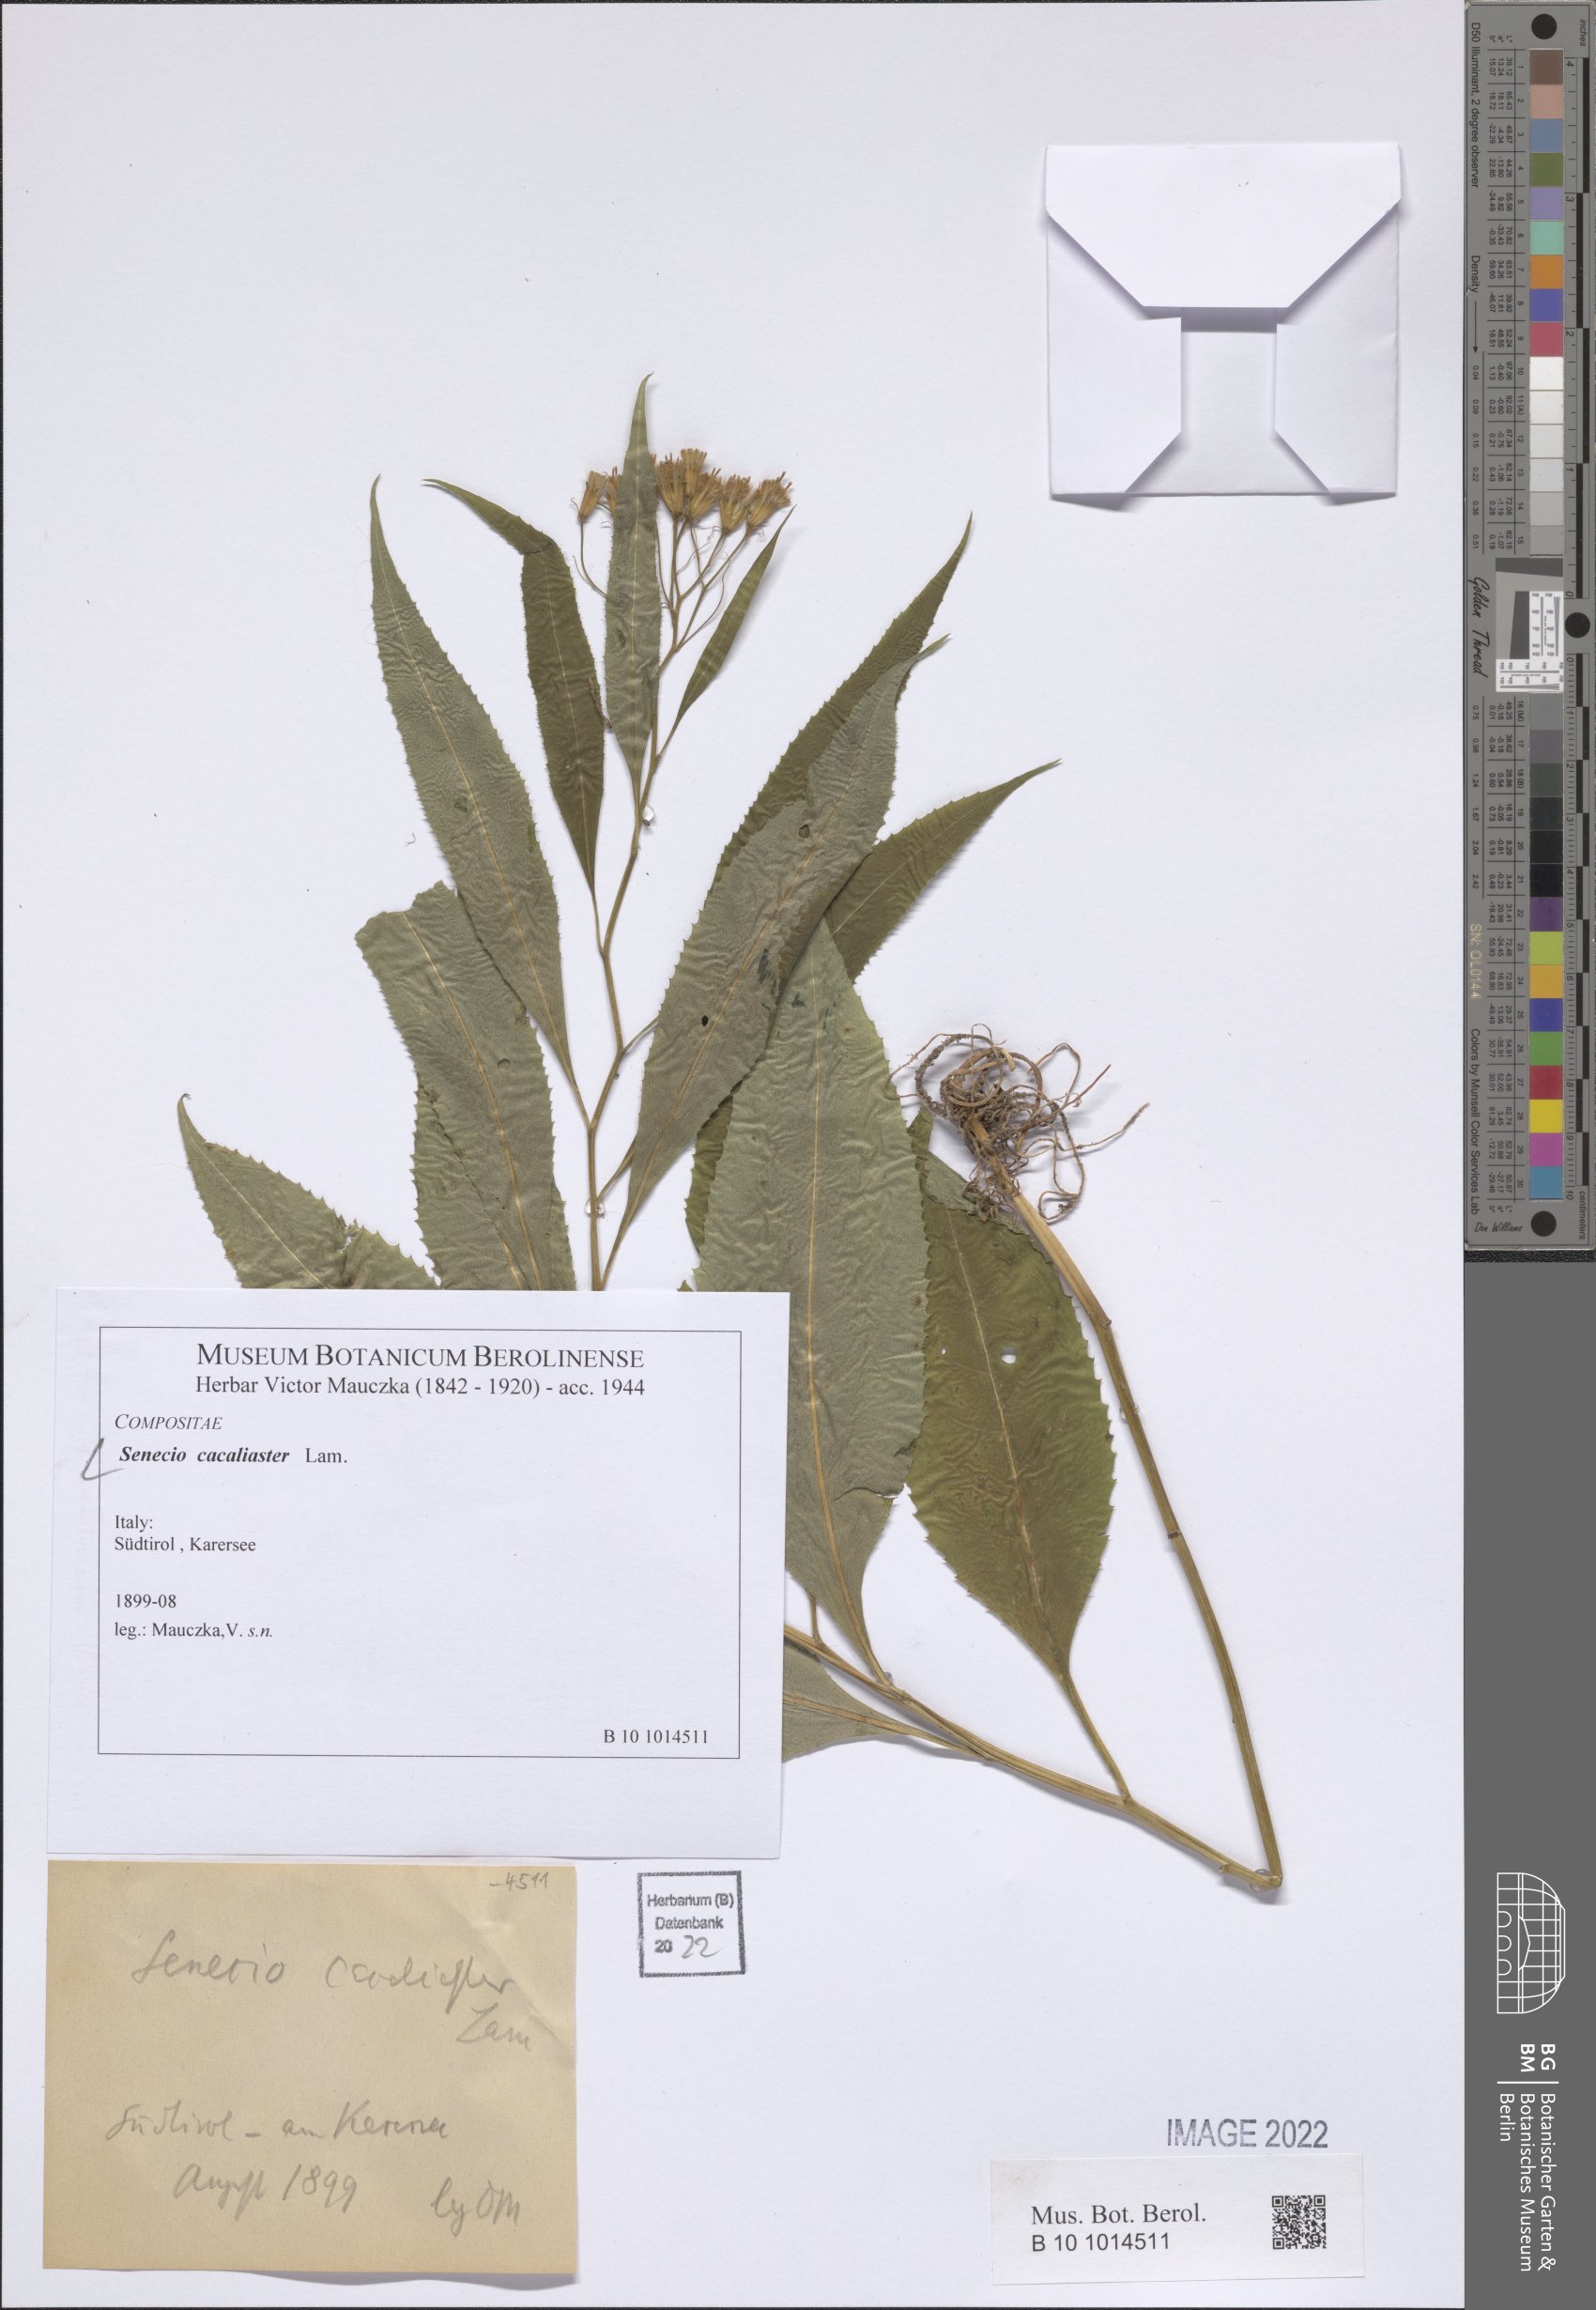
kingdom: Plantae
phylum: Tracheophyta
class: Magnoliopsida
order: Asterales
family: Asteraceae
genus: Senecio
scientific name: Senecio cacaliaster
